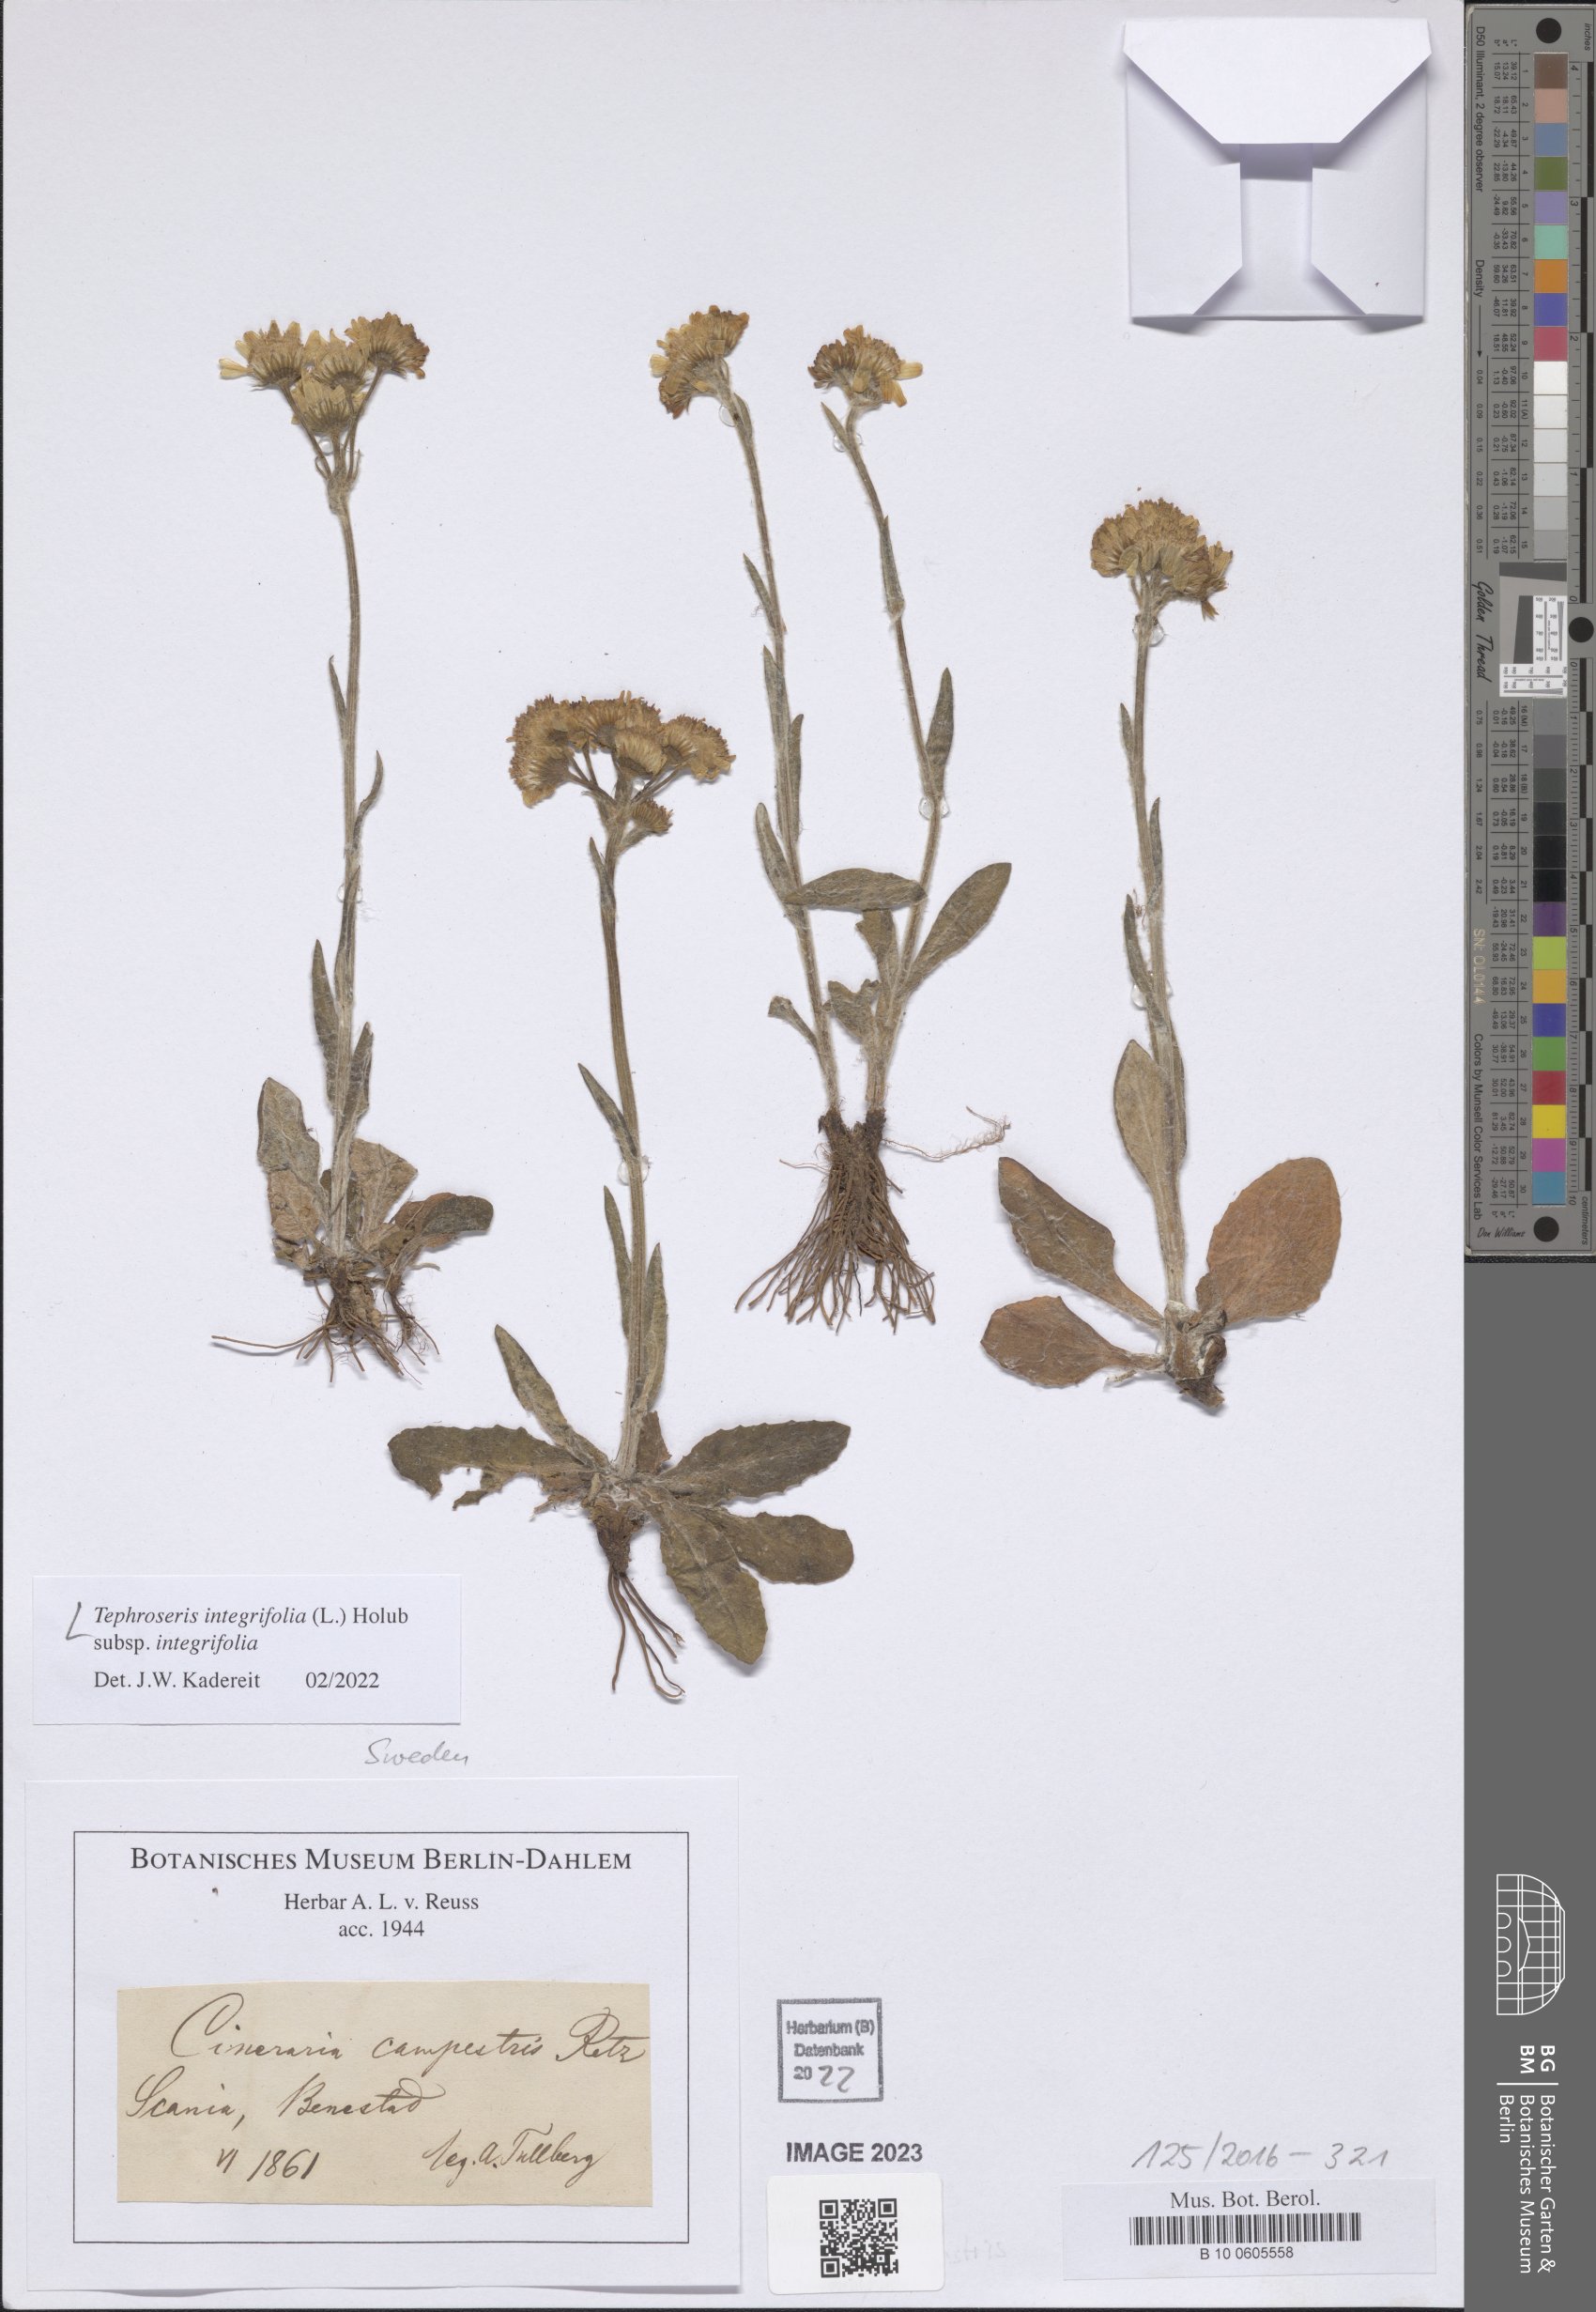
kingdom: Plantae
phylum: Tracheophyta
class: Magnoliopsida
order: Asterales
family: Asteraceae
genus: Tephroseris
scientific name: Tephroseris integrifolia
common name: Field fleawort
